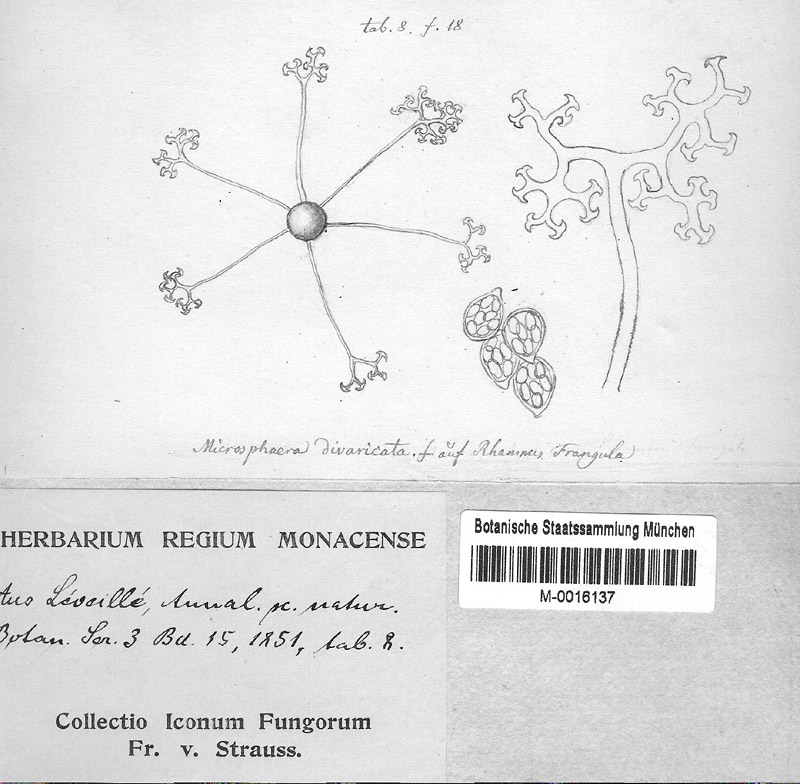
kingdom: Fungi
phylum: Ascomycota
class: Leotiomycetes
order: Helotiales
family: Erysiphaceae
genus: Erysiphe
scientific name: Erysiphe divaricata
